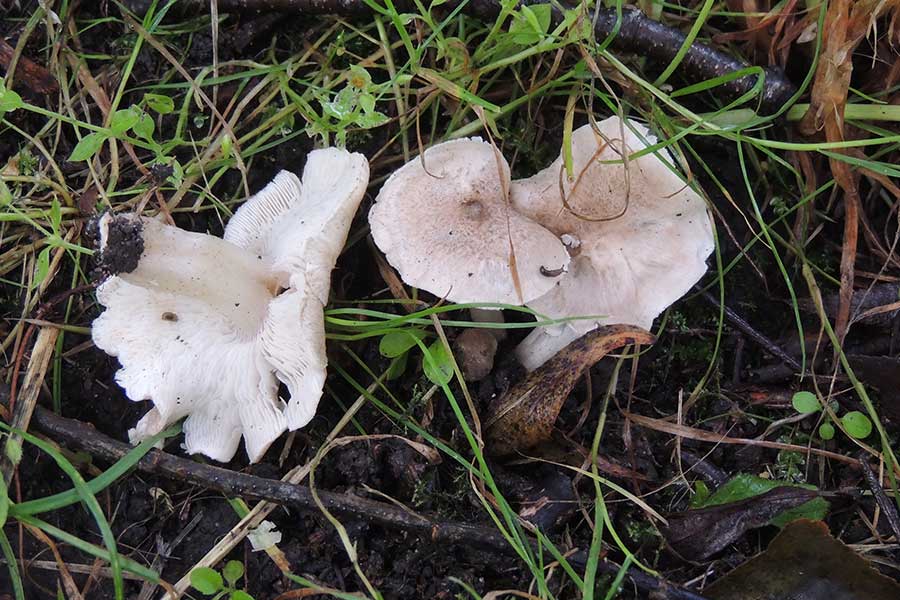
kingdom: Fungi
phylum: Basidiomycota
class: Agaricomycetes
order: Agaricales
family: Tricholomataceae
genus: Tricholoma
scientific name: Tricholoma argyraceum
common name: spids ridderhat
